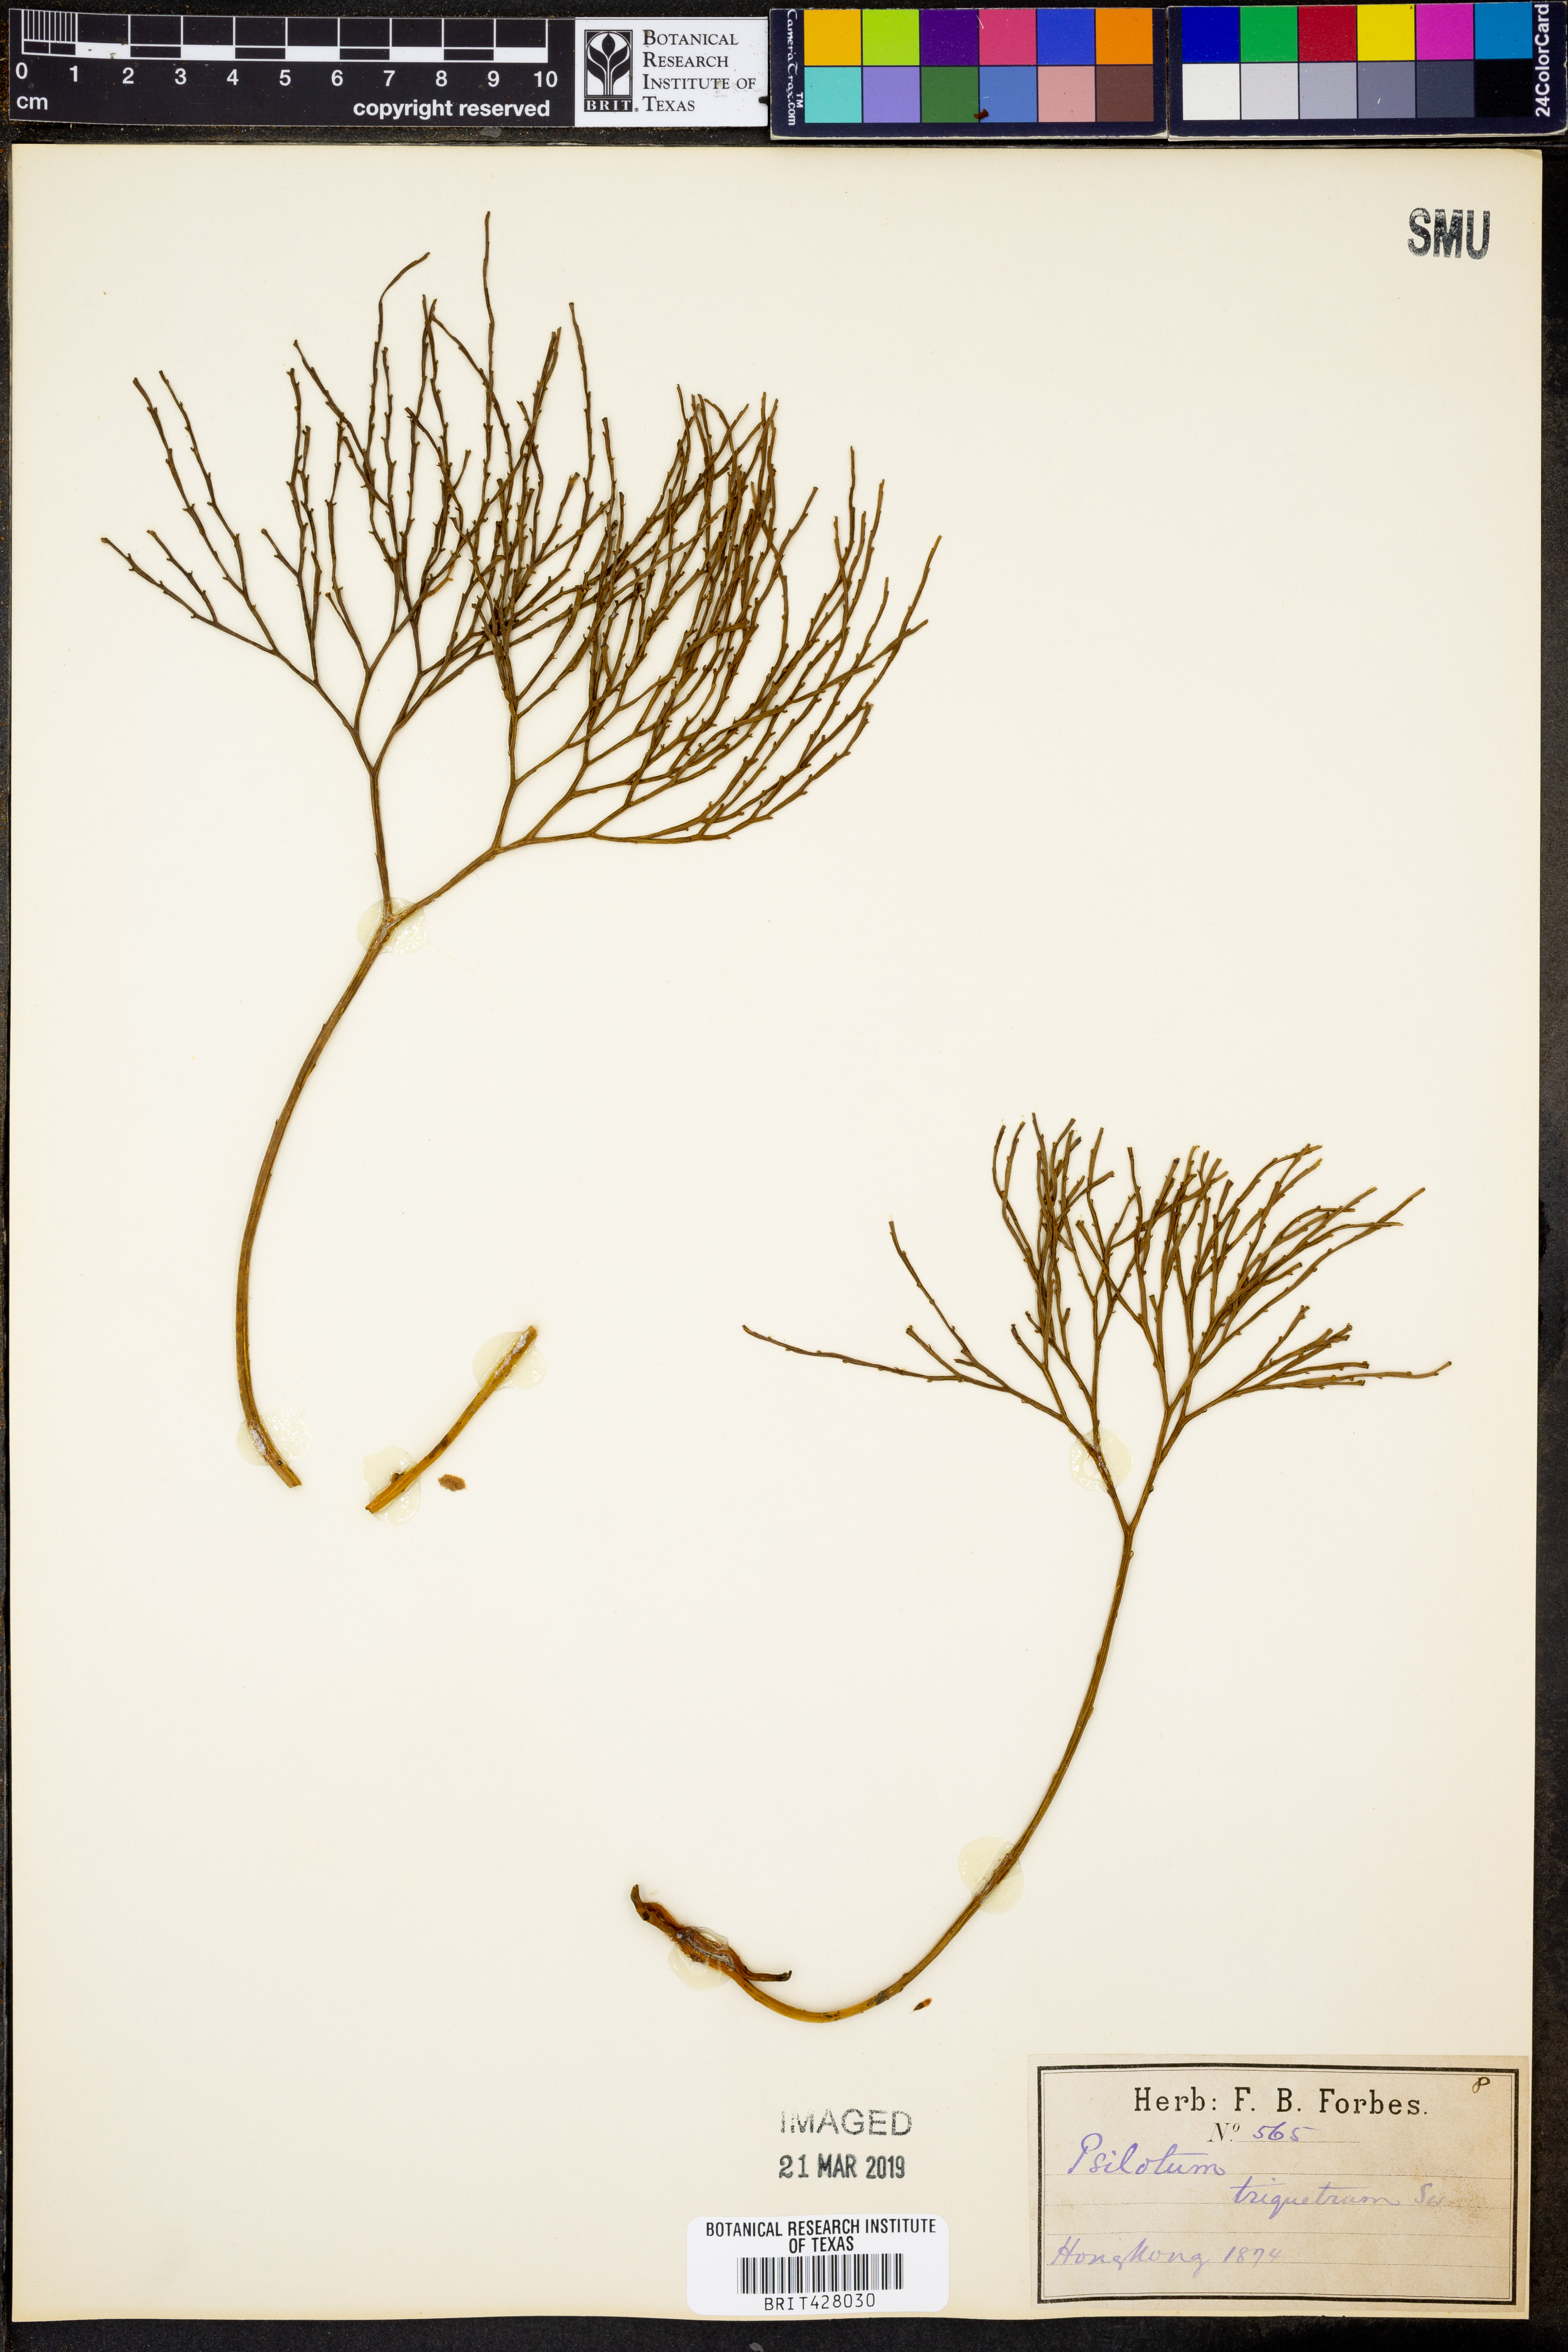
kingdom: Plantae
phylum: Tracheophyta
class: Polypodiopsida
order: Psilotales
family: Psilotaceae
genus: Psilotum
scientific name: Psilotum nudum
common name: Skeleton fork fern
